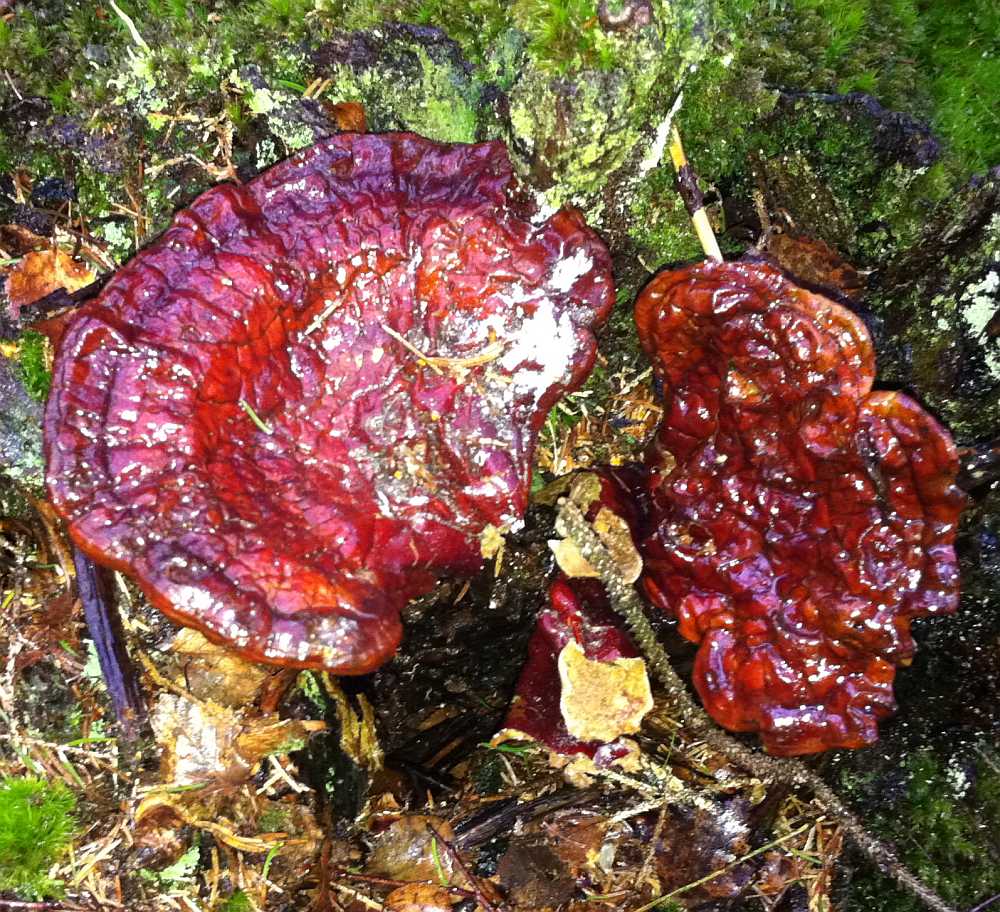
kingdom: Fungi
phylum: Basidiomycota
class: Agaricomycetes
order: Polyporales
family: Polyporaceae
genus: Ganoderma
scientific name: Ganoderma lucidum
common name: skinnende lakporesvamp
